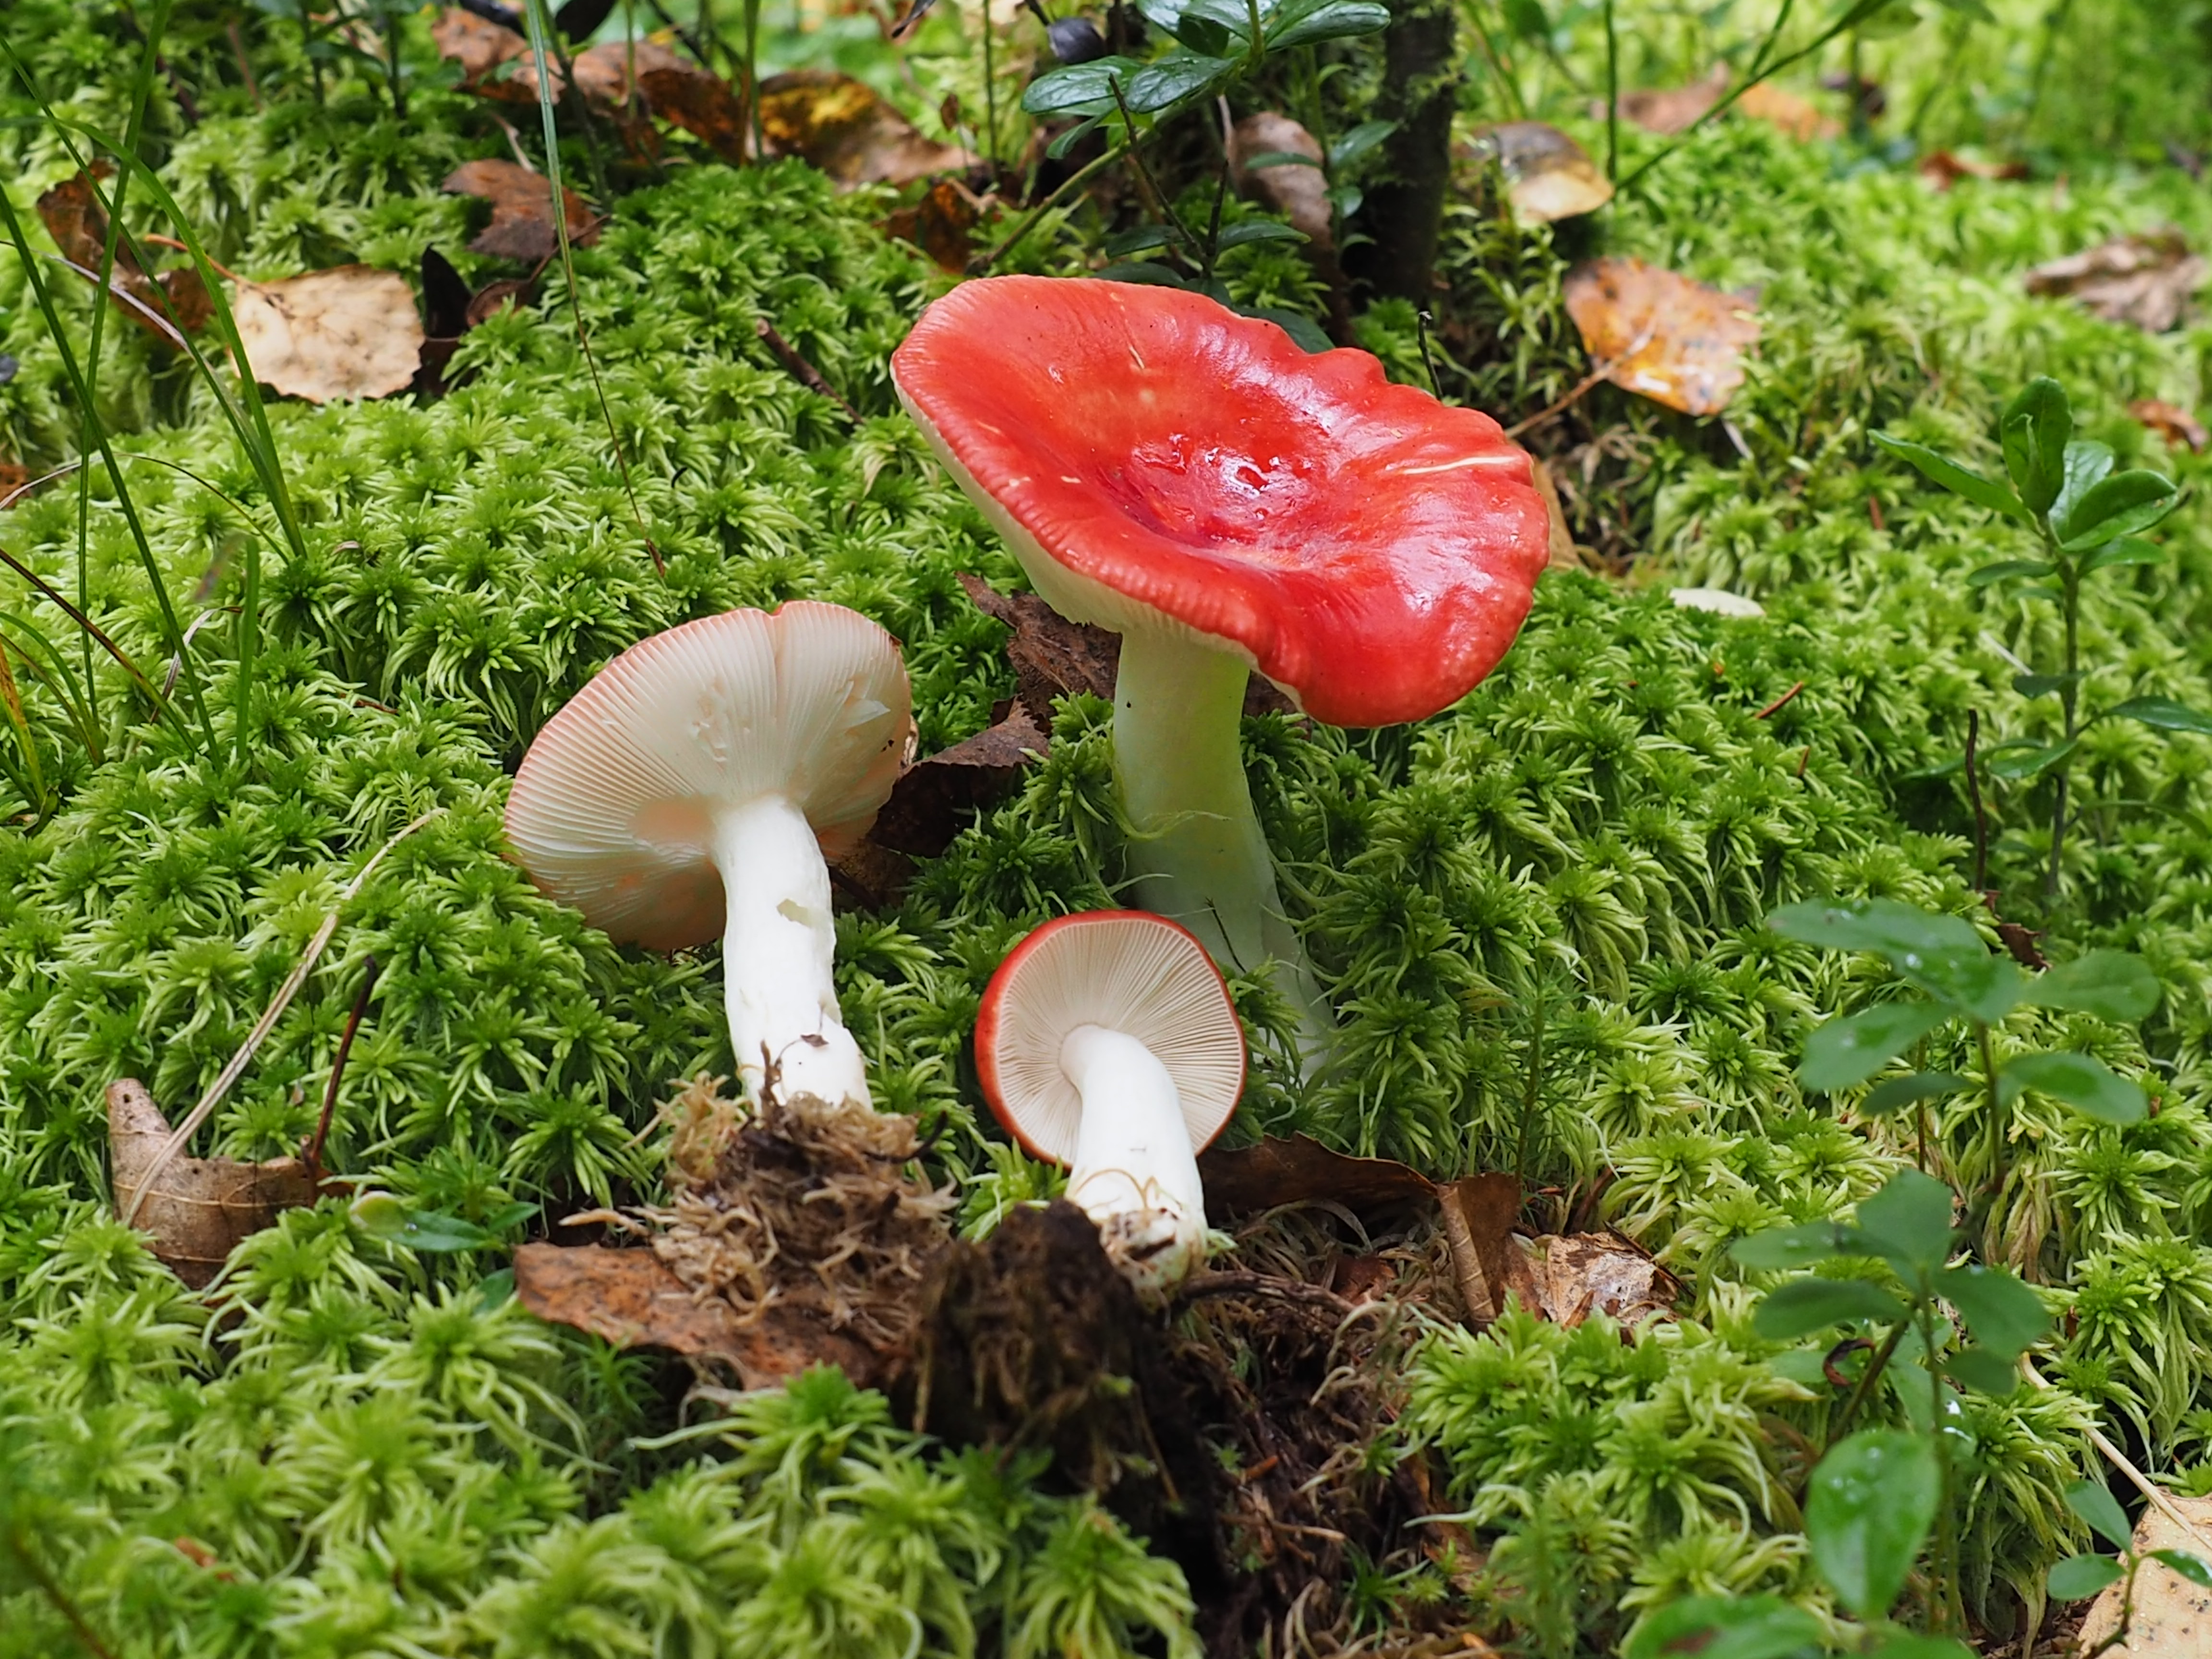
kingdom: Fungi
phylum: Basidiomycota
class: Agaricomycetes
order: Russulales
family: Russulaceae
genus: Russula
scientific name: Russula grisescens
